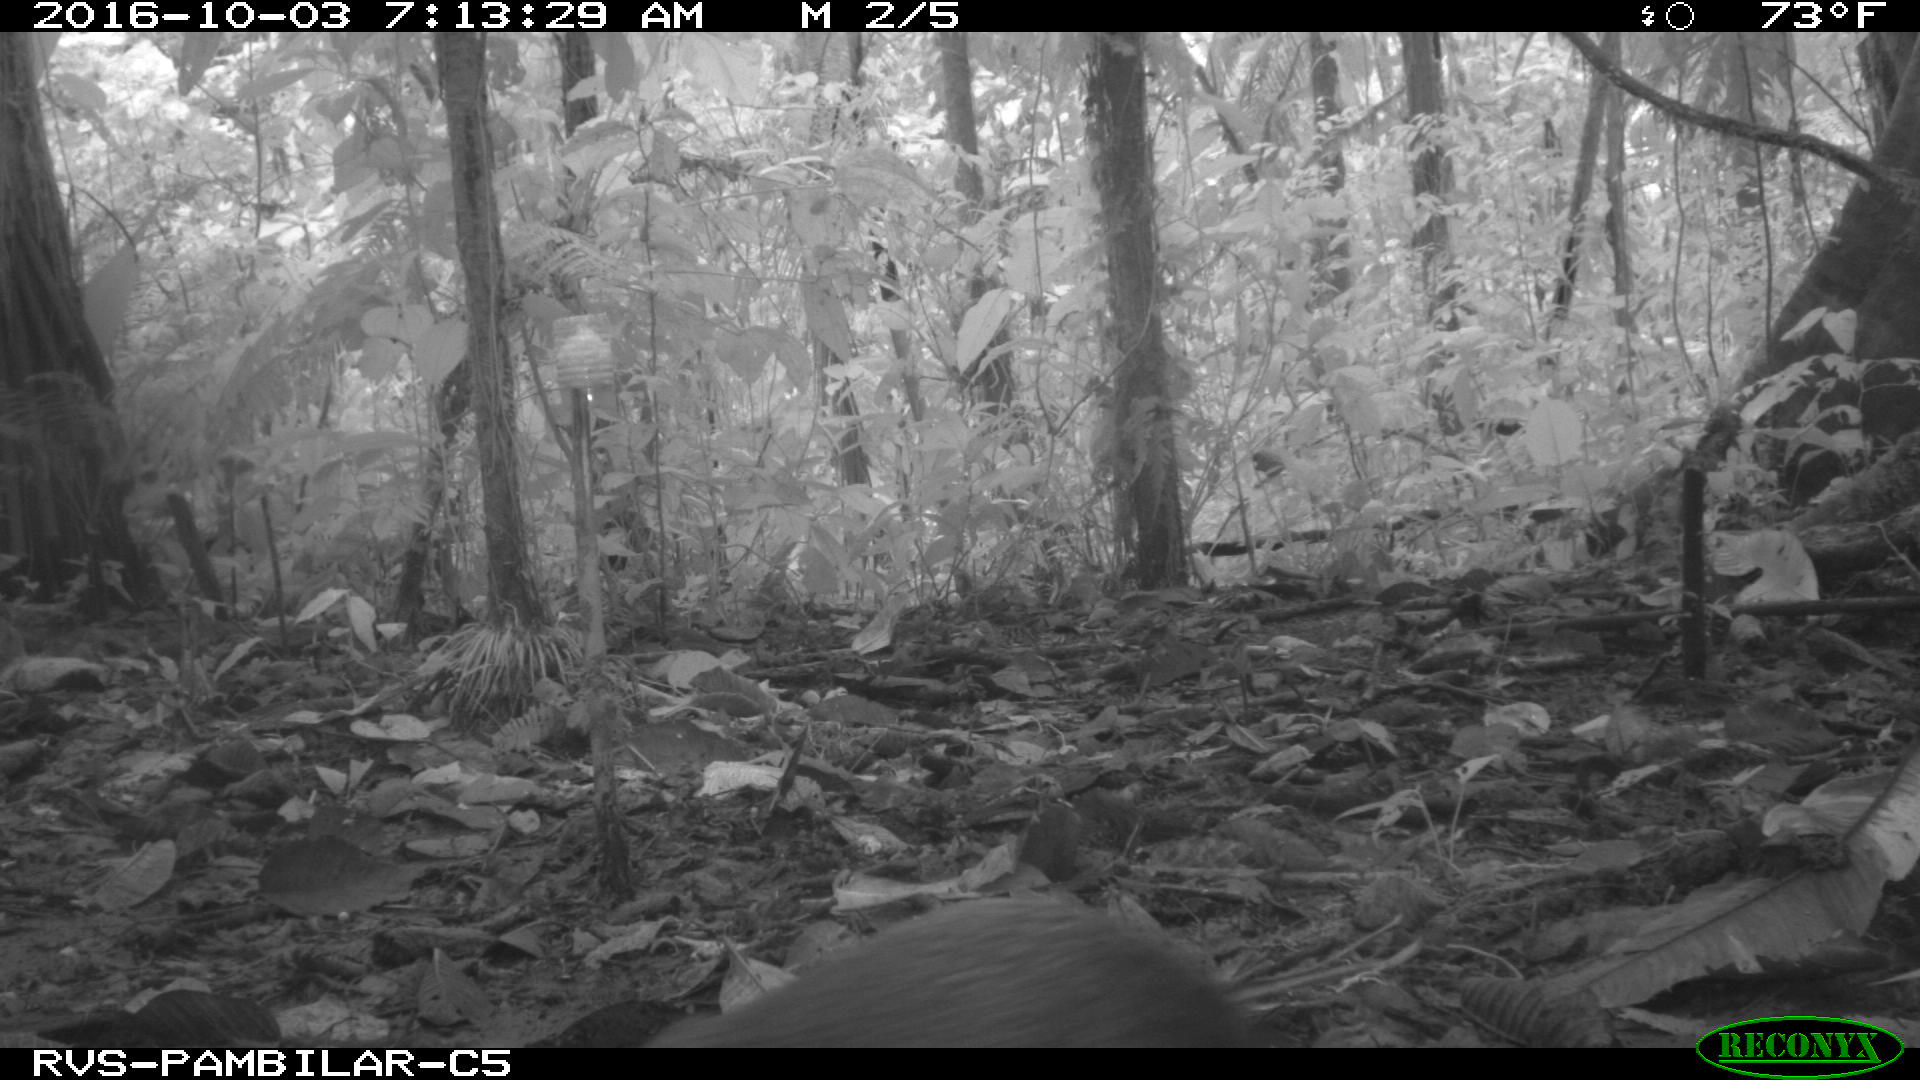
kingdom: Animalia
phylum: Chordata
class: Mammalia
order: Rodentia
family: Dasyproctidae
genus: Dasyprocta
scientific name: Dasyprocta punctata
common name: Central american agouti
